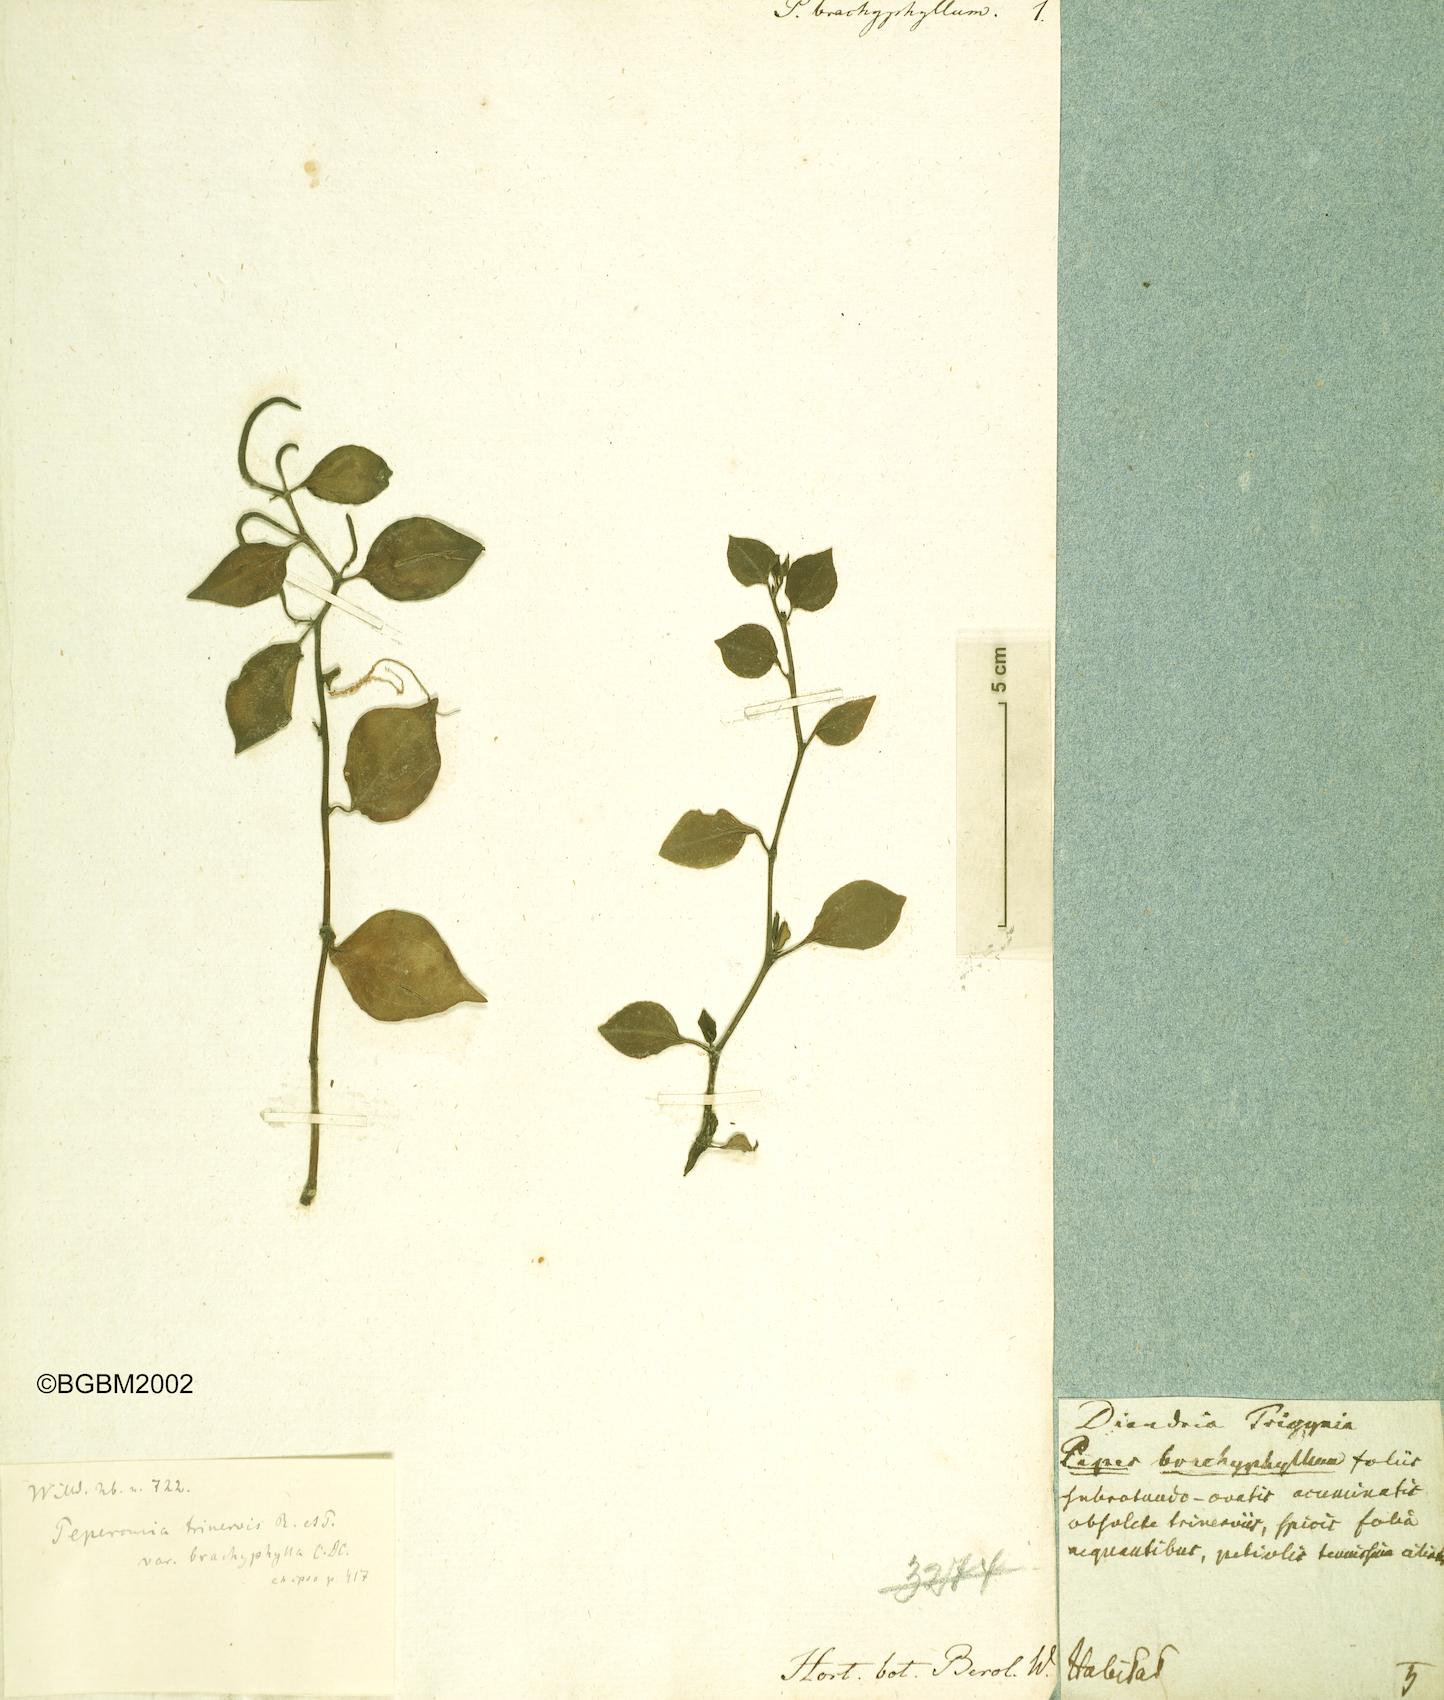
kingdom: Plantae
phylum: Tracheophyta
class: Magnoliopsida
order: Piperales
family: Piperaceae
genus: Peperomia
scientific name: Peperomia trinervis
